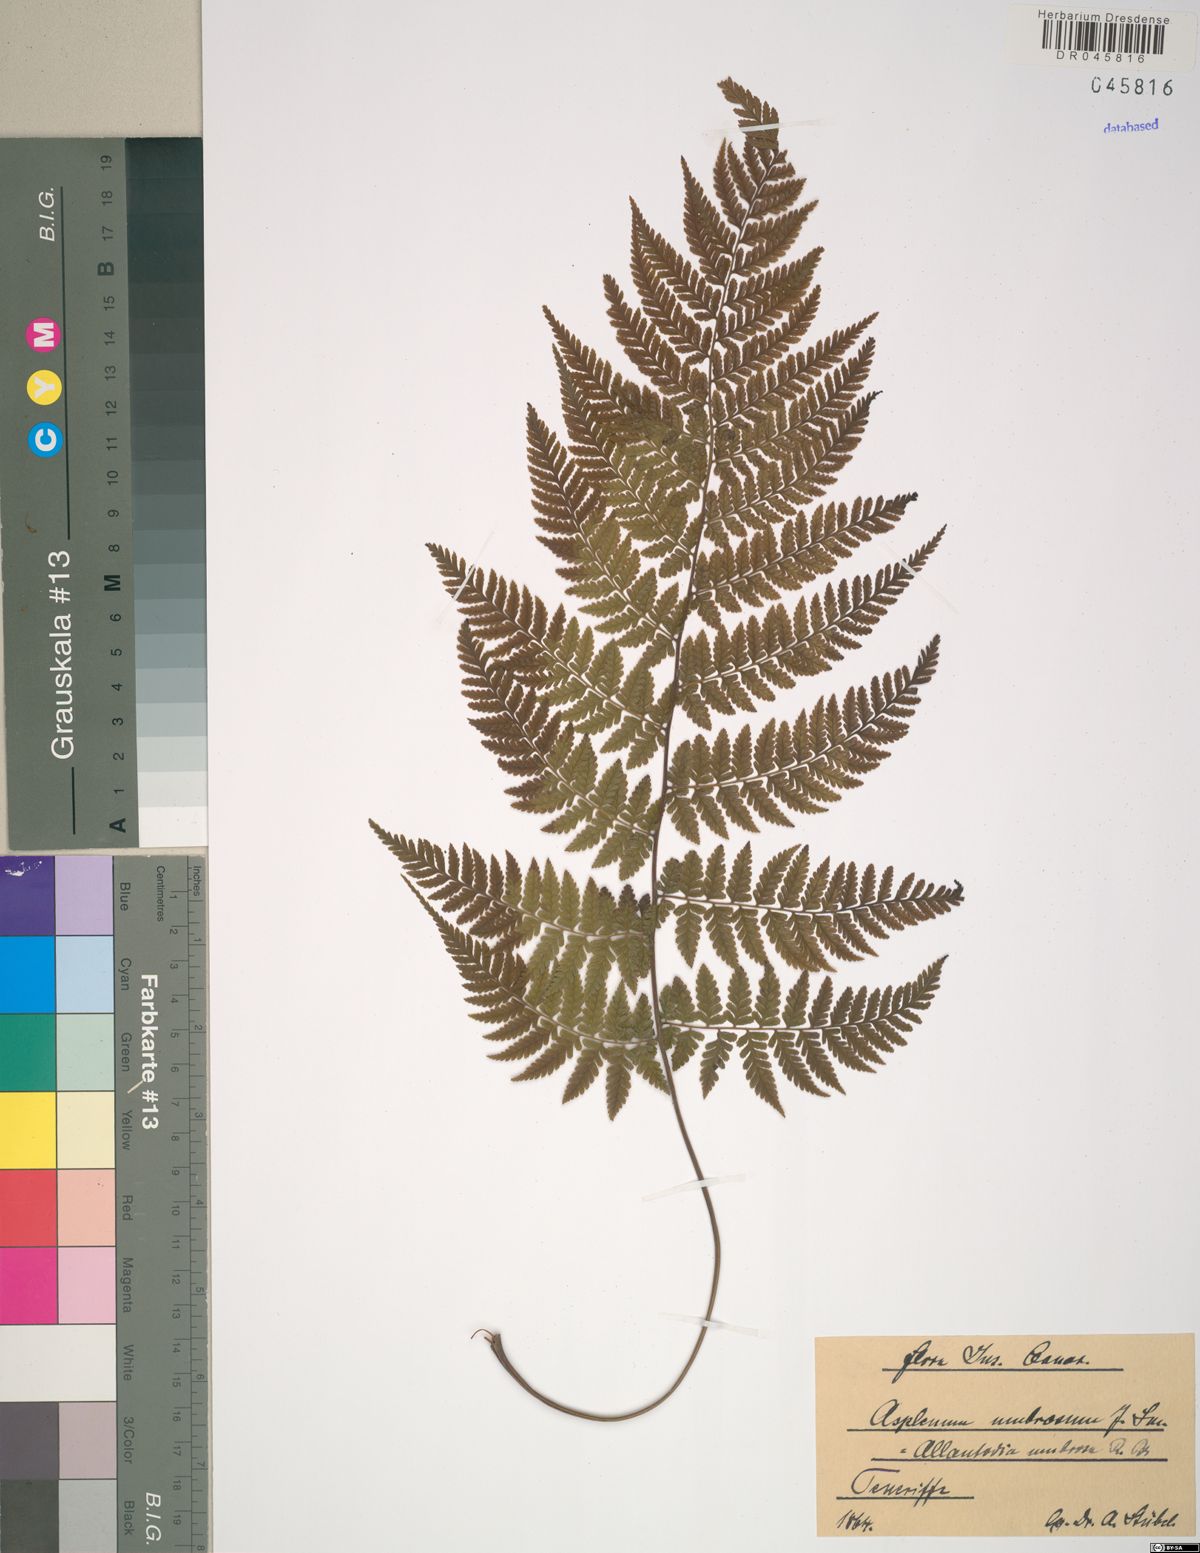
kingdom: Plantae
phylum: Tracheophyta
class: Polypodiopsida
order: Polypodiales
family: Athyriaceae
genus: Diplazium
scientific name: Diplazium caudatum
